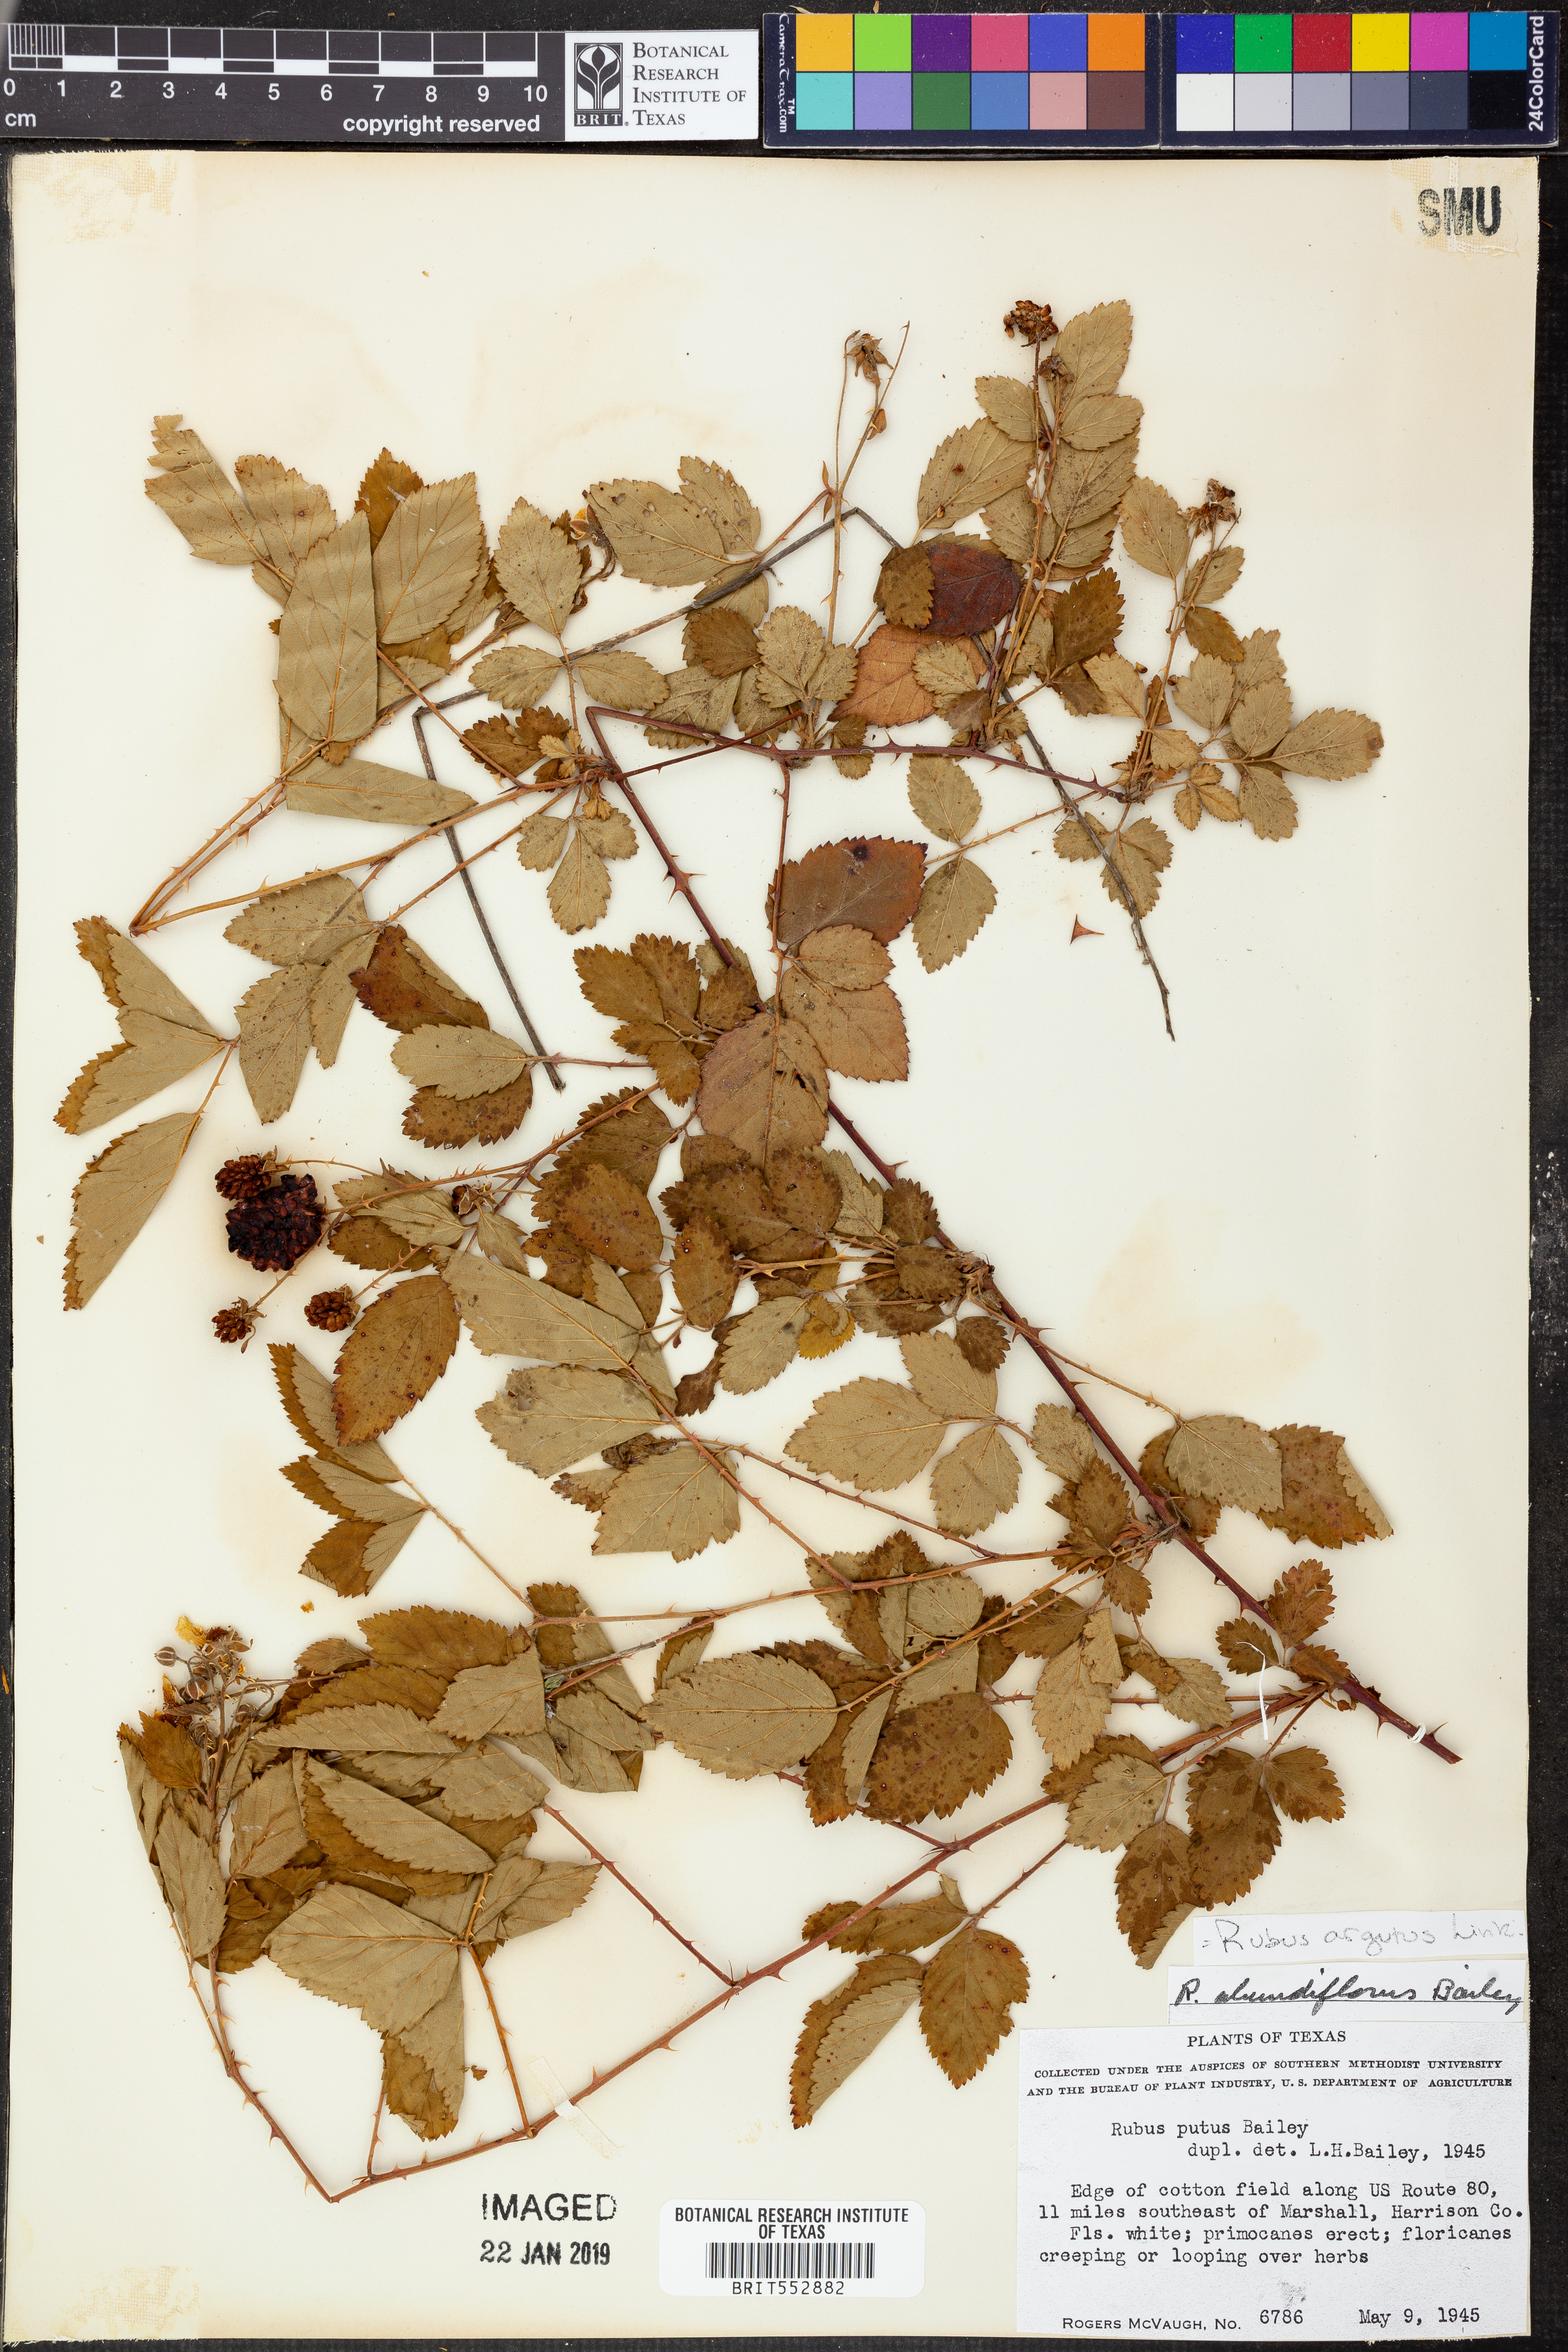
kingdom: Plantae
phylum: Tracheophyta
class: Magnoliopsida
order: Rosales
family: Rosaceae
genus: Rubus
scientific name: Rubus argutus
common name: Sawtooth blackberry
